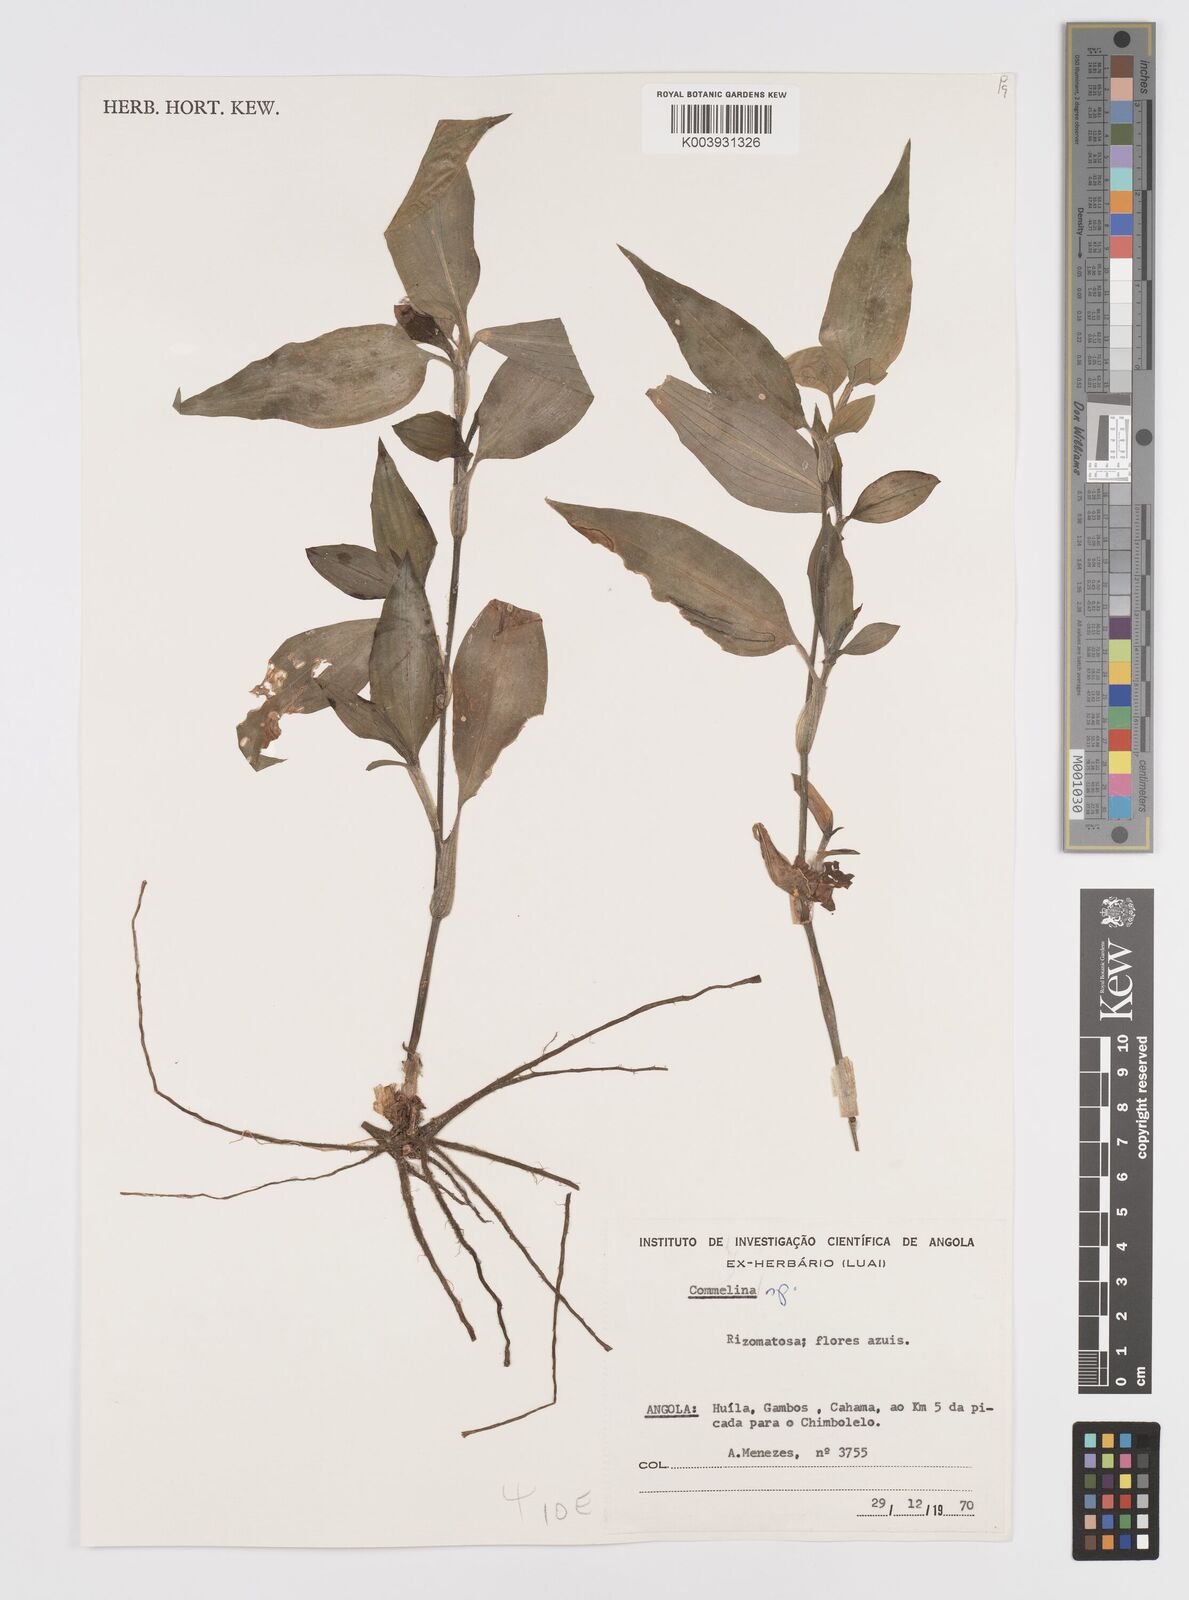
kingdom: Plantae
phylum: Tracheophyta
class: Liliopsida
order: Commelinales
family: Commelinaceae
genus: Commelina
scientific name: Commelina
